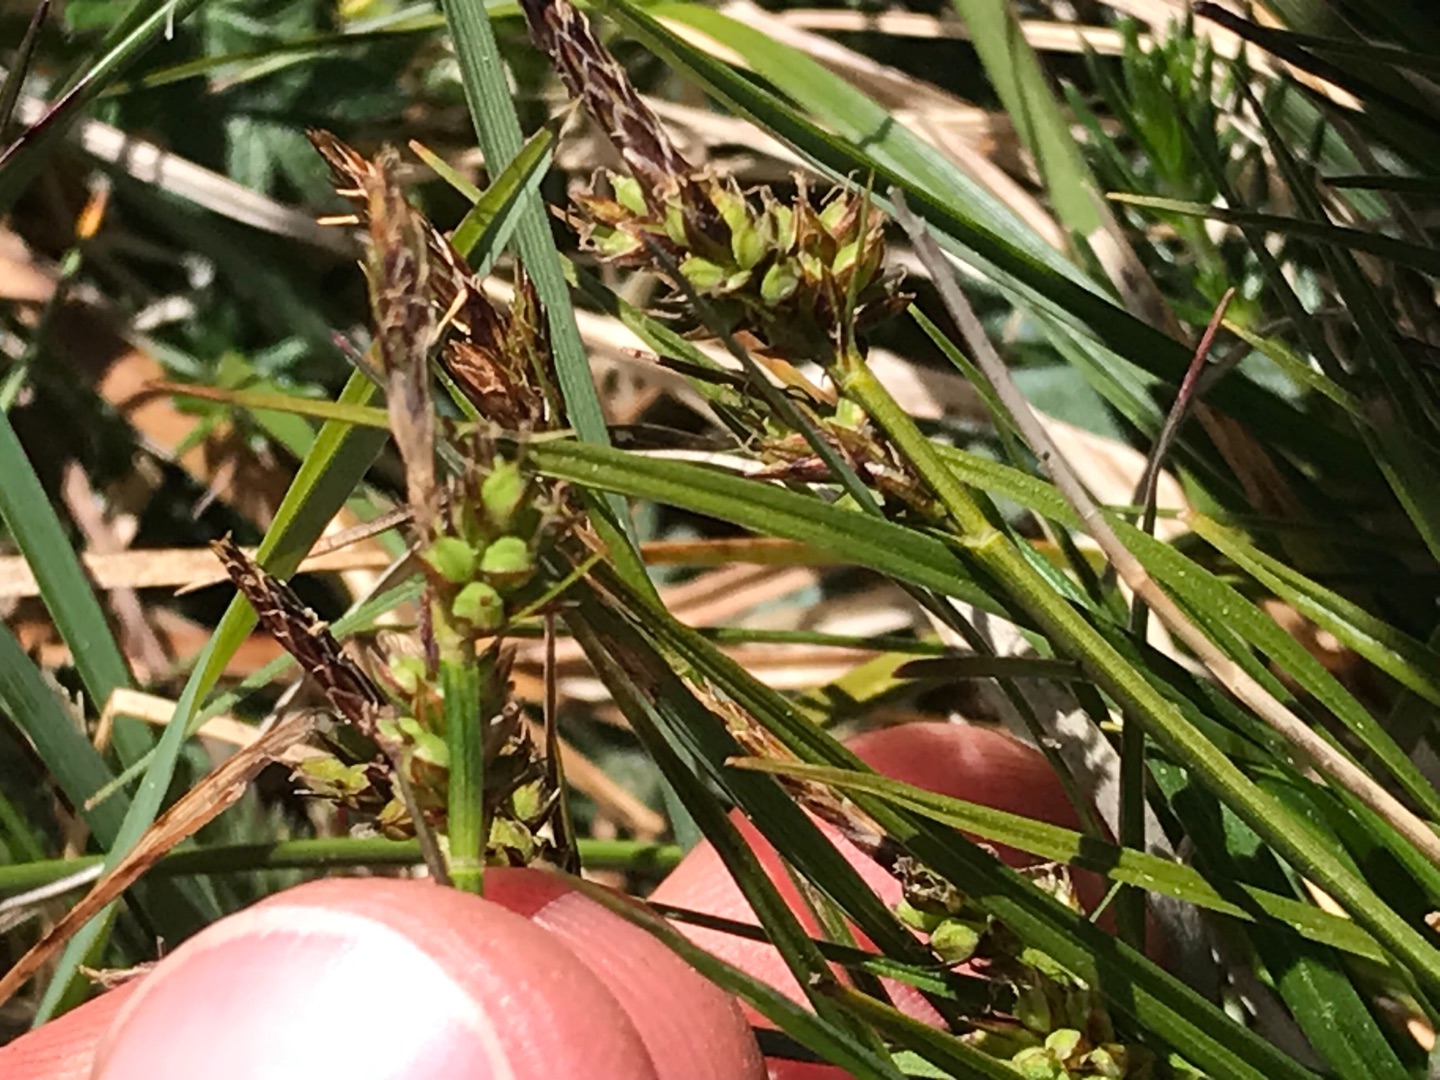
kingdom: Plantae
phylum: Tracheophyta
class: Liliopsida
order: Poales
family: Cyperaceae
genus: Carex
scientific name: Carex pilulifera
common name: Pille-star
